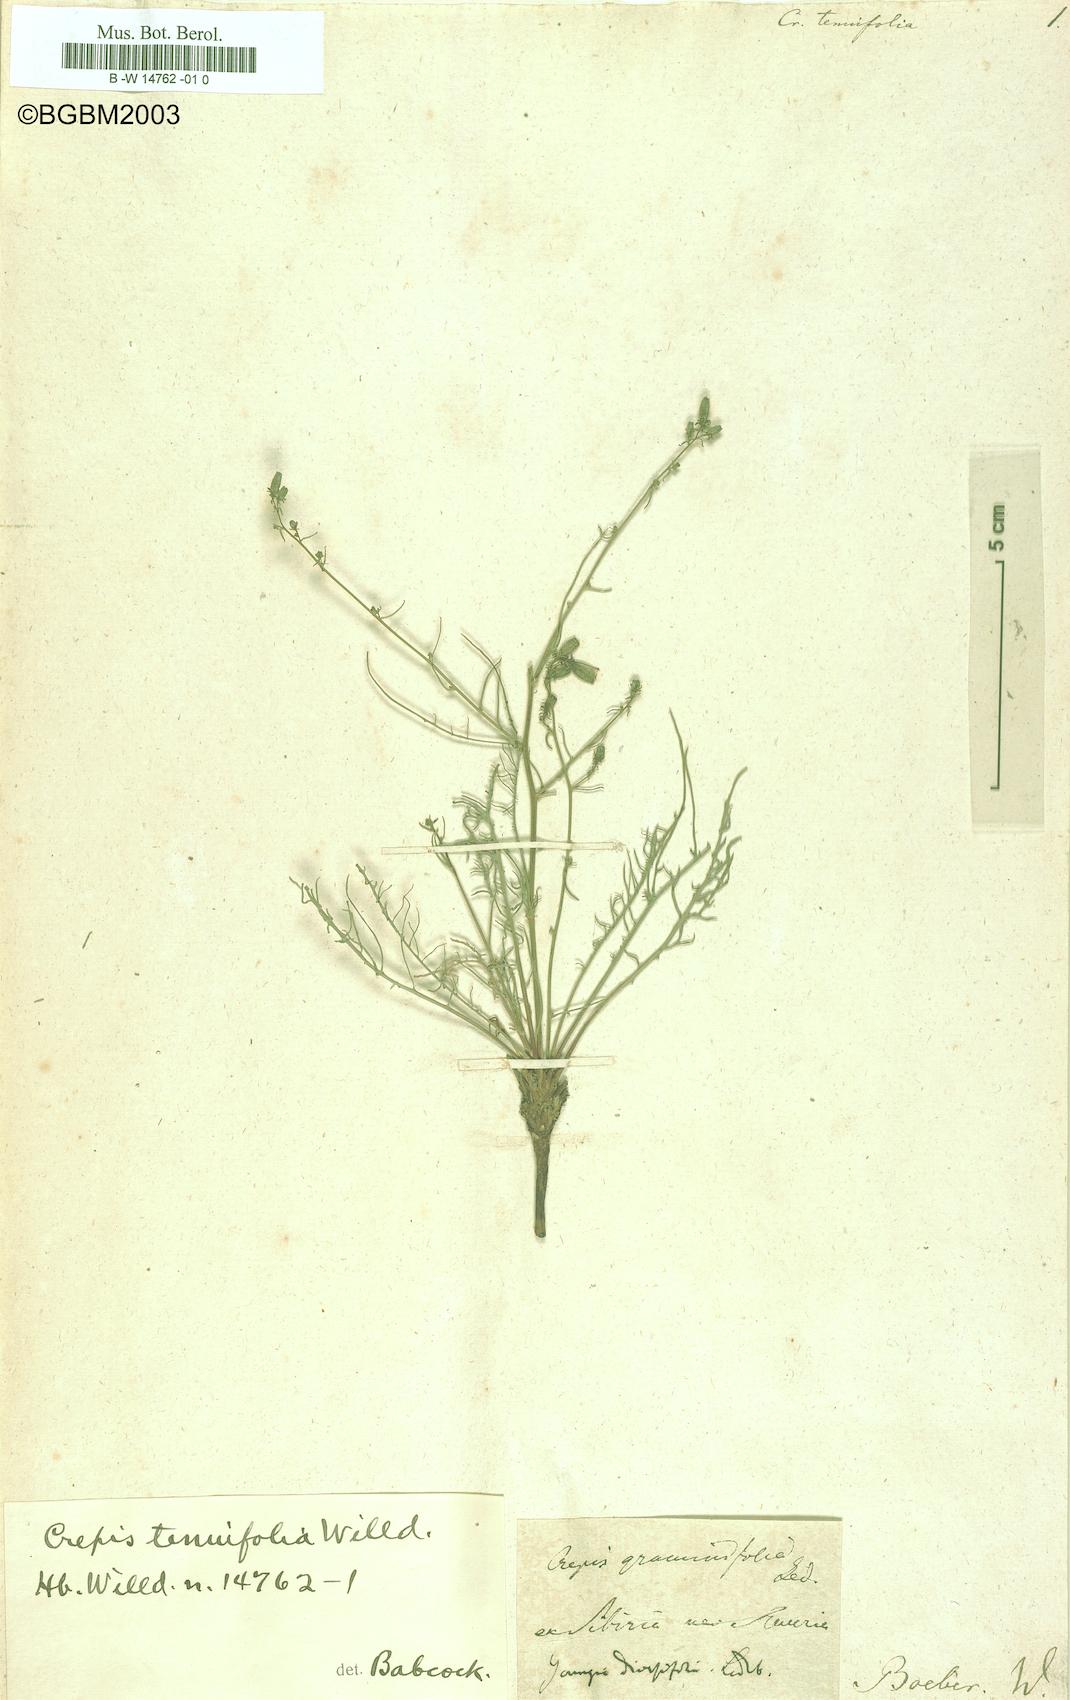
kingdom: Plantae
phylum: Tracheophyta
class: Magnoliopsida
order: Asterales
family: Asteraceae
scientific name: Asteraceae
